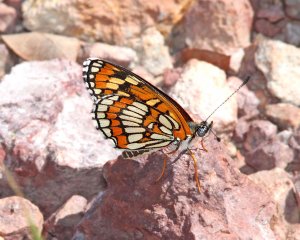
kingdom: Animalia
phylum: Arthropoda
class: Insecta
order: Lepidoptera
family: Nymphalidae
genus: Thessalia
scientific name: Thessalia theona
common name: Theona Checkerspot
